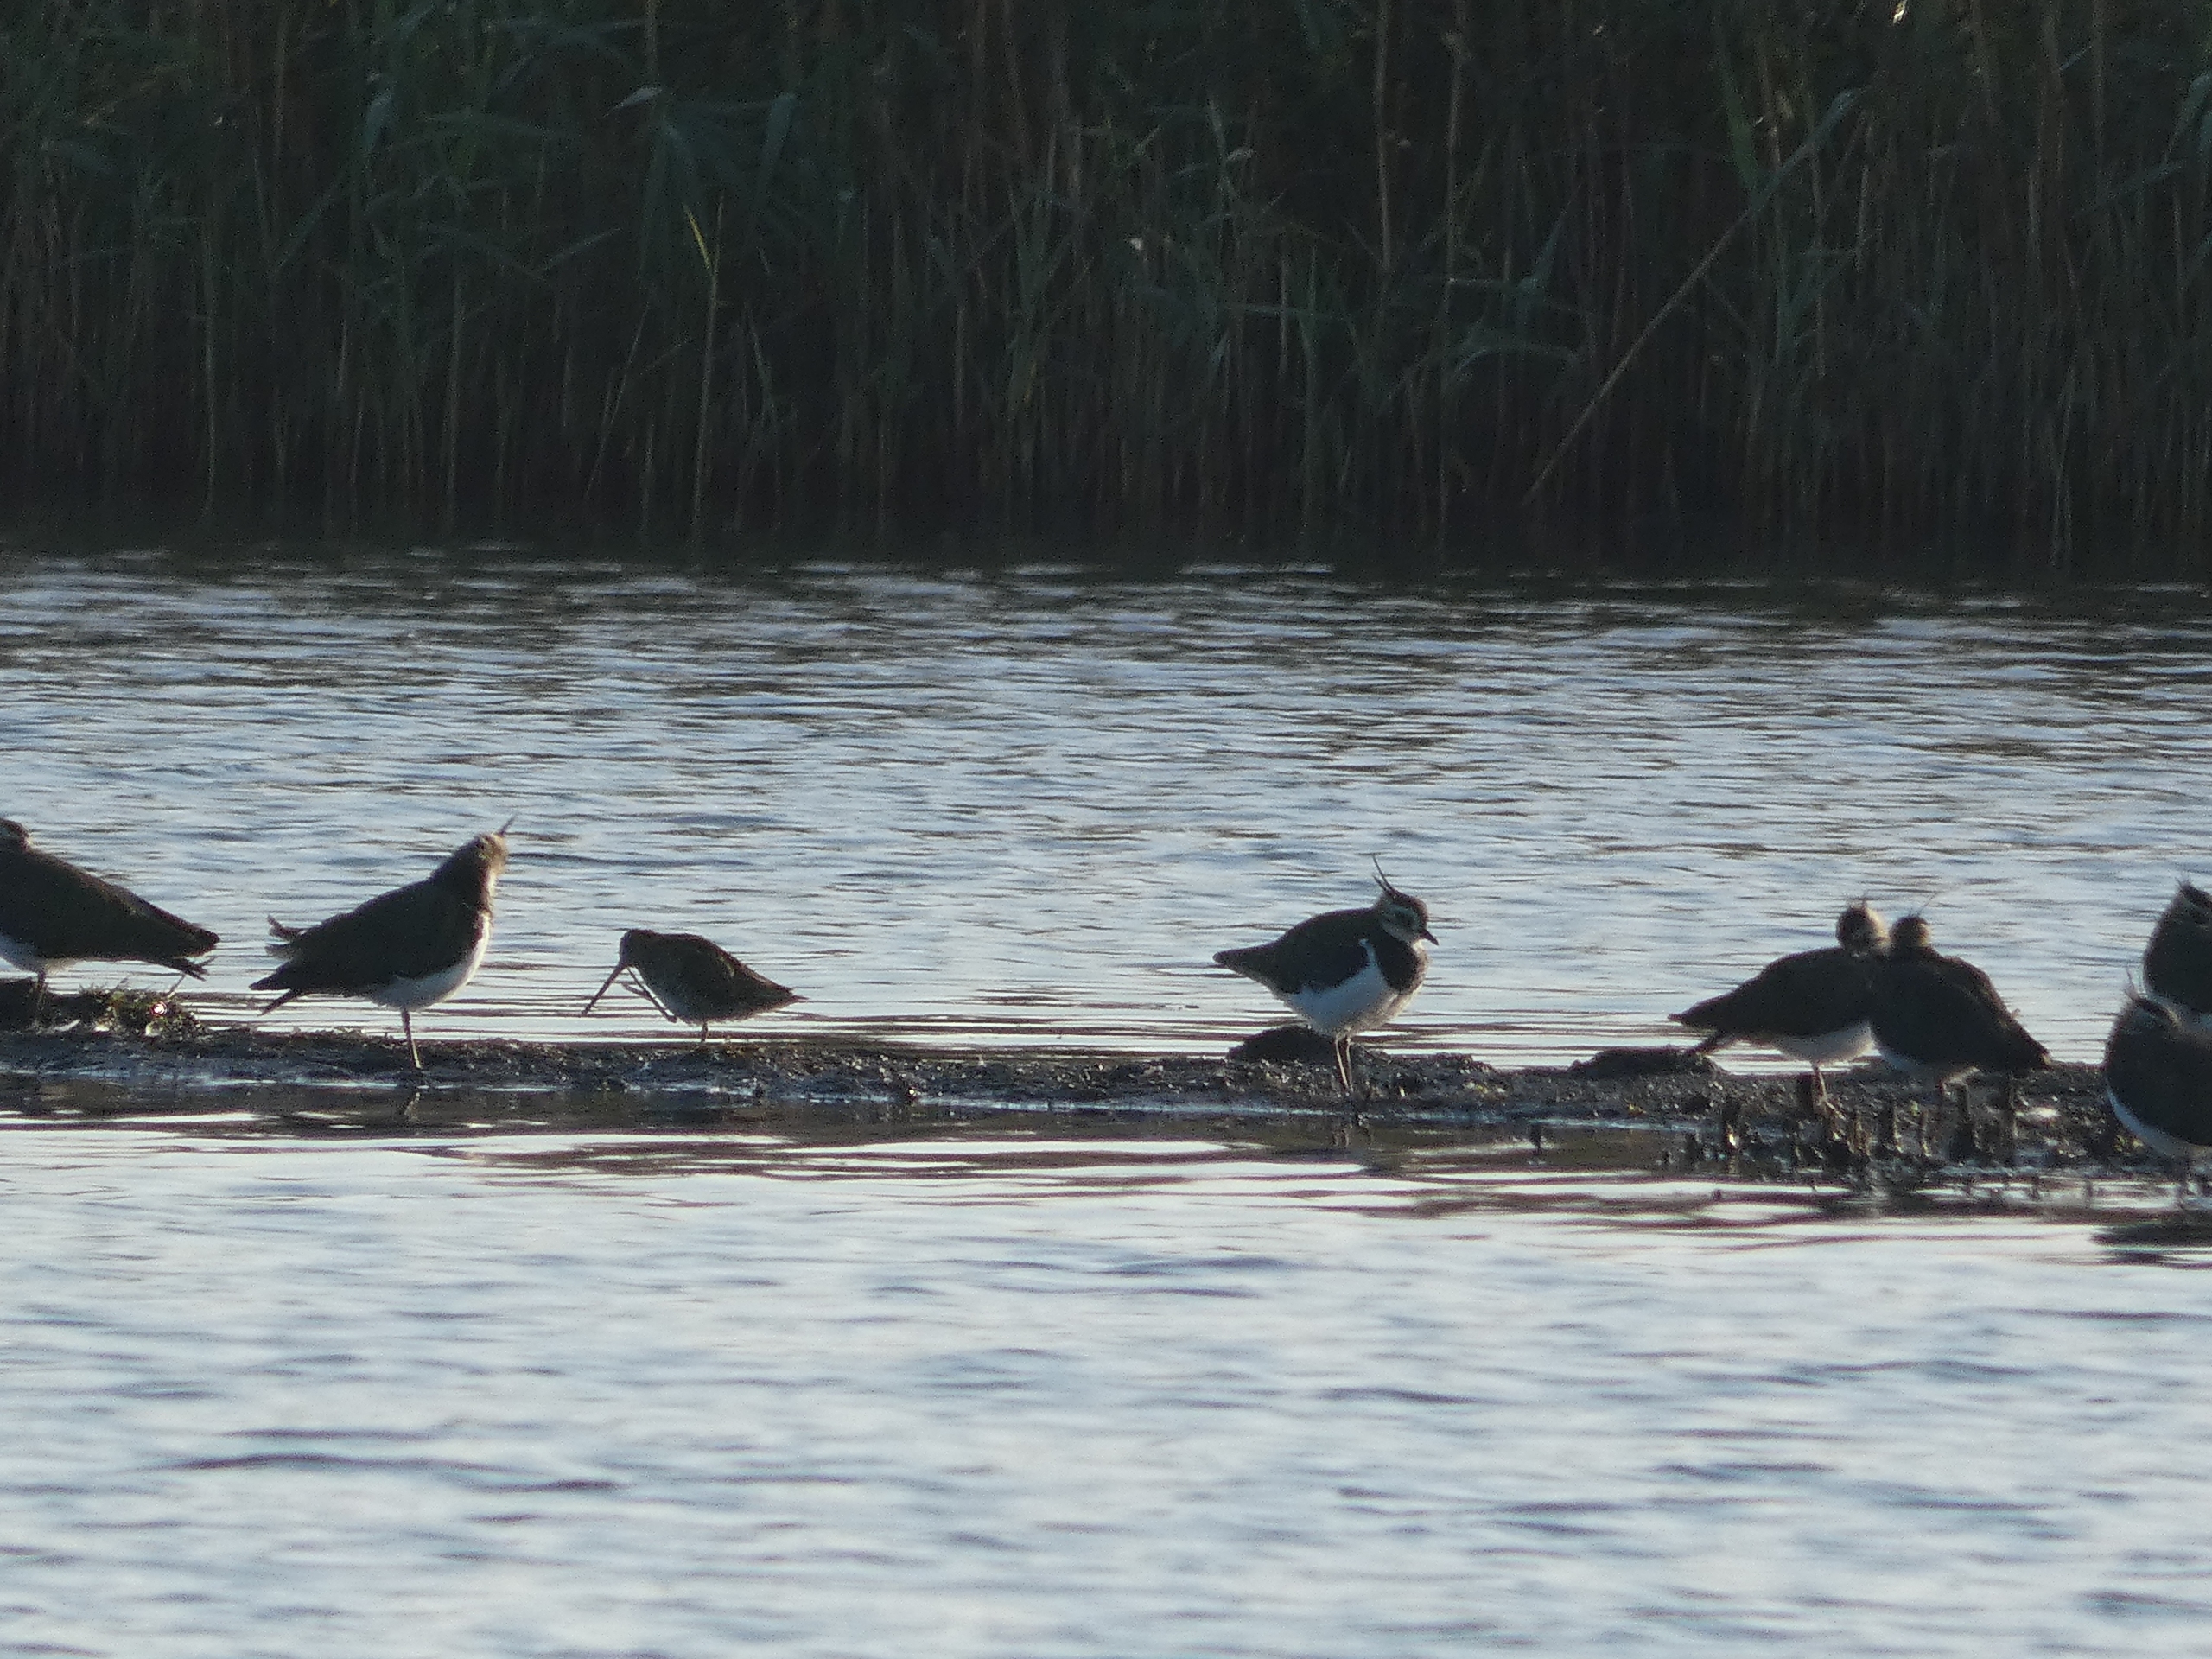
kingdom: Animalia
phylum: Chordata
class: Aves
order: Charadriiformes
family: Scolopacidae
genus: Gallinago
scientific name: Gallinago gallinago
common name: Dobbeltbekkasin
